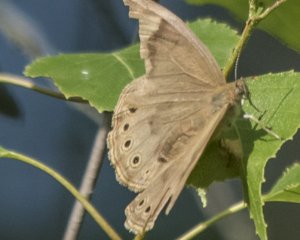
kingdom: Animalia
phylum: Arthropoda
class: Insecta
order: Lepidoptera
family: Nymphalidae
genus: Lethe
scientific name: Lethe eurydice
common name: Eyed Brown
